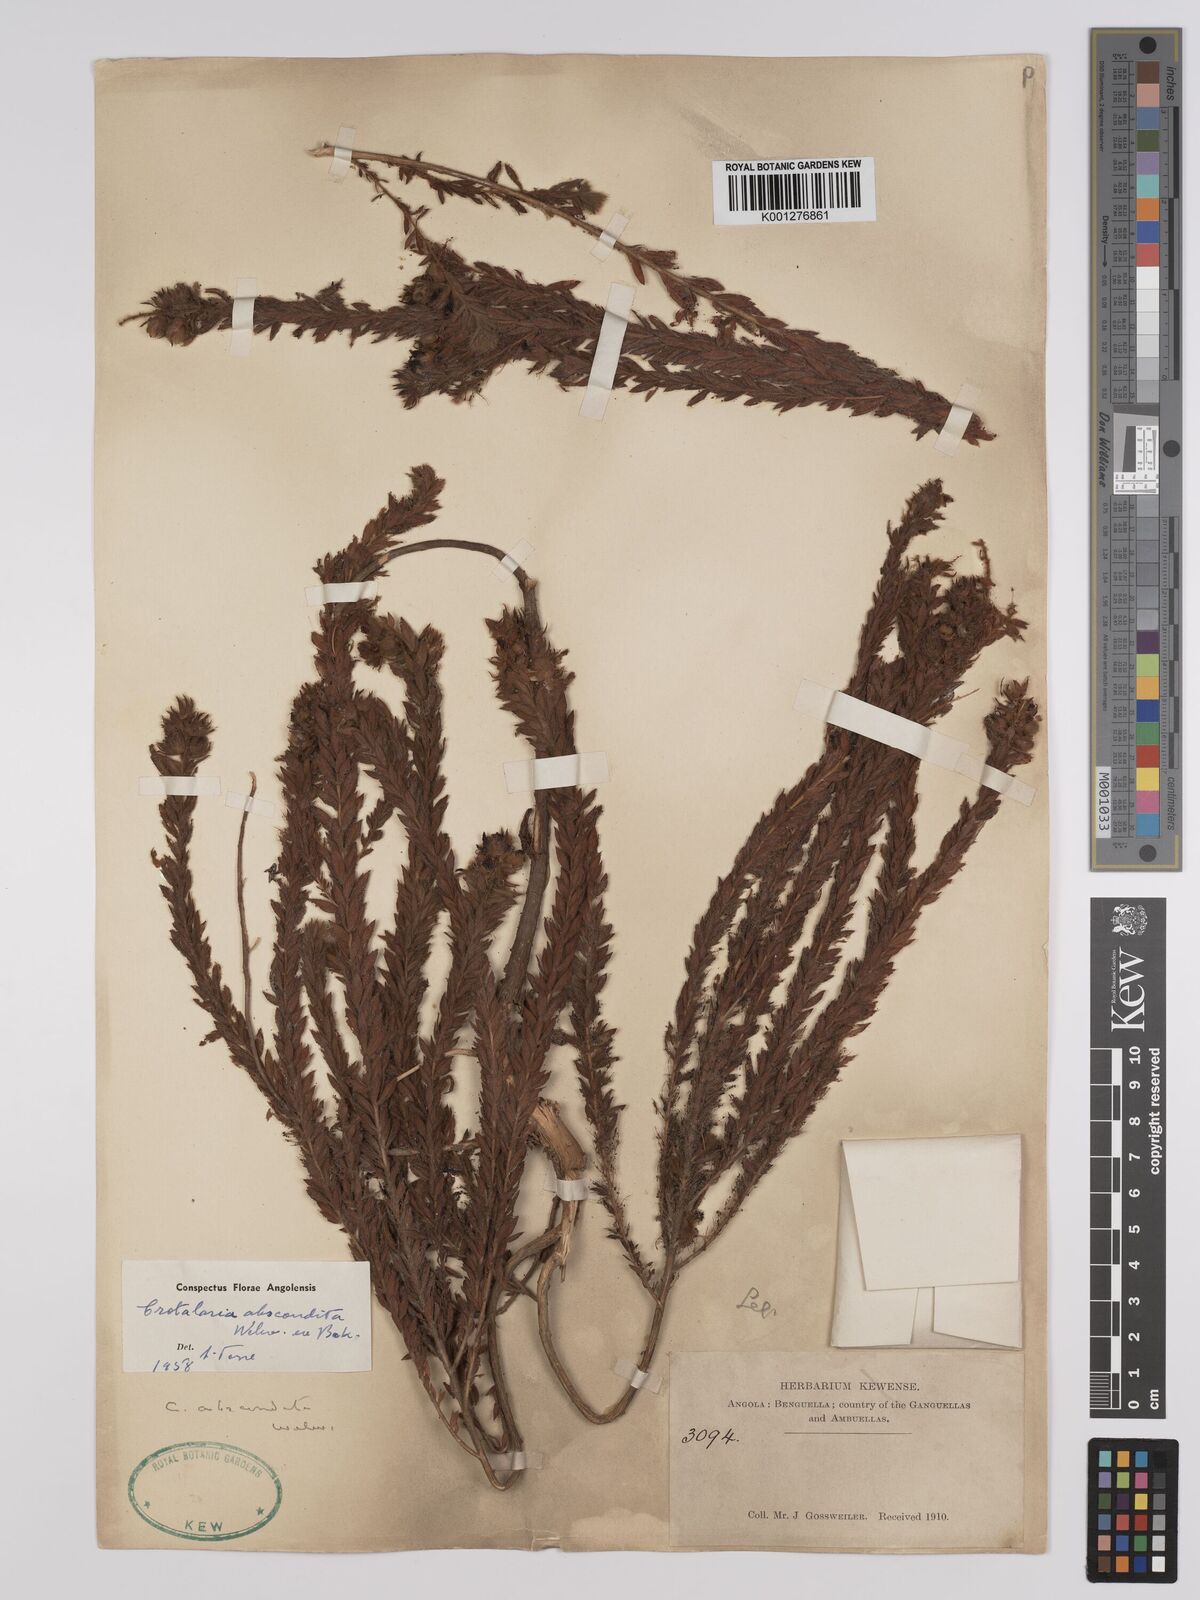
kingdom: Plantae
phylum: Tracheophyta
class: Magnoliopsida
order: Fabales
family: Fabaceae
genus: Crotalaria
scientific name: Crotalaria abscondita
